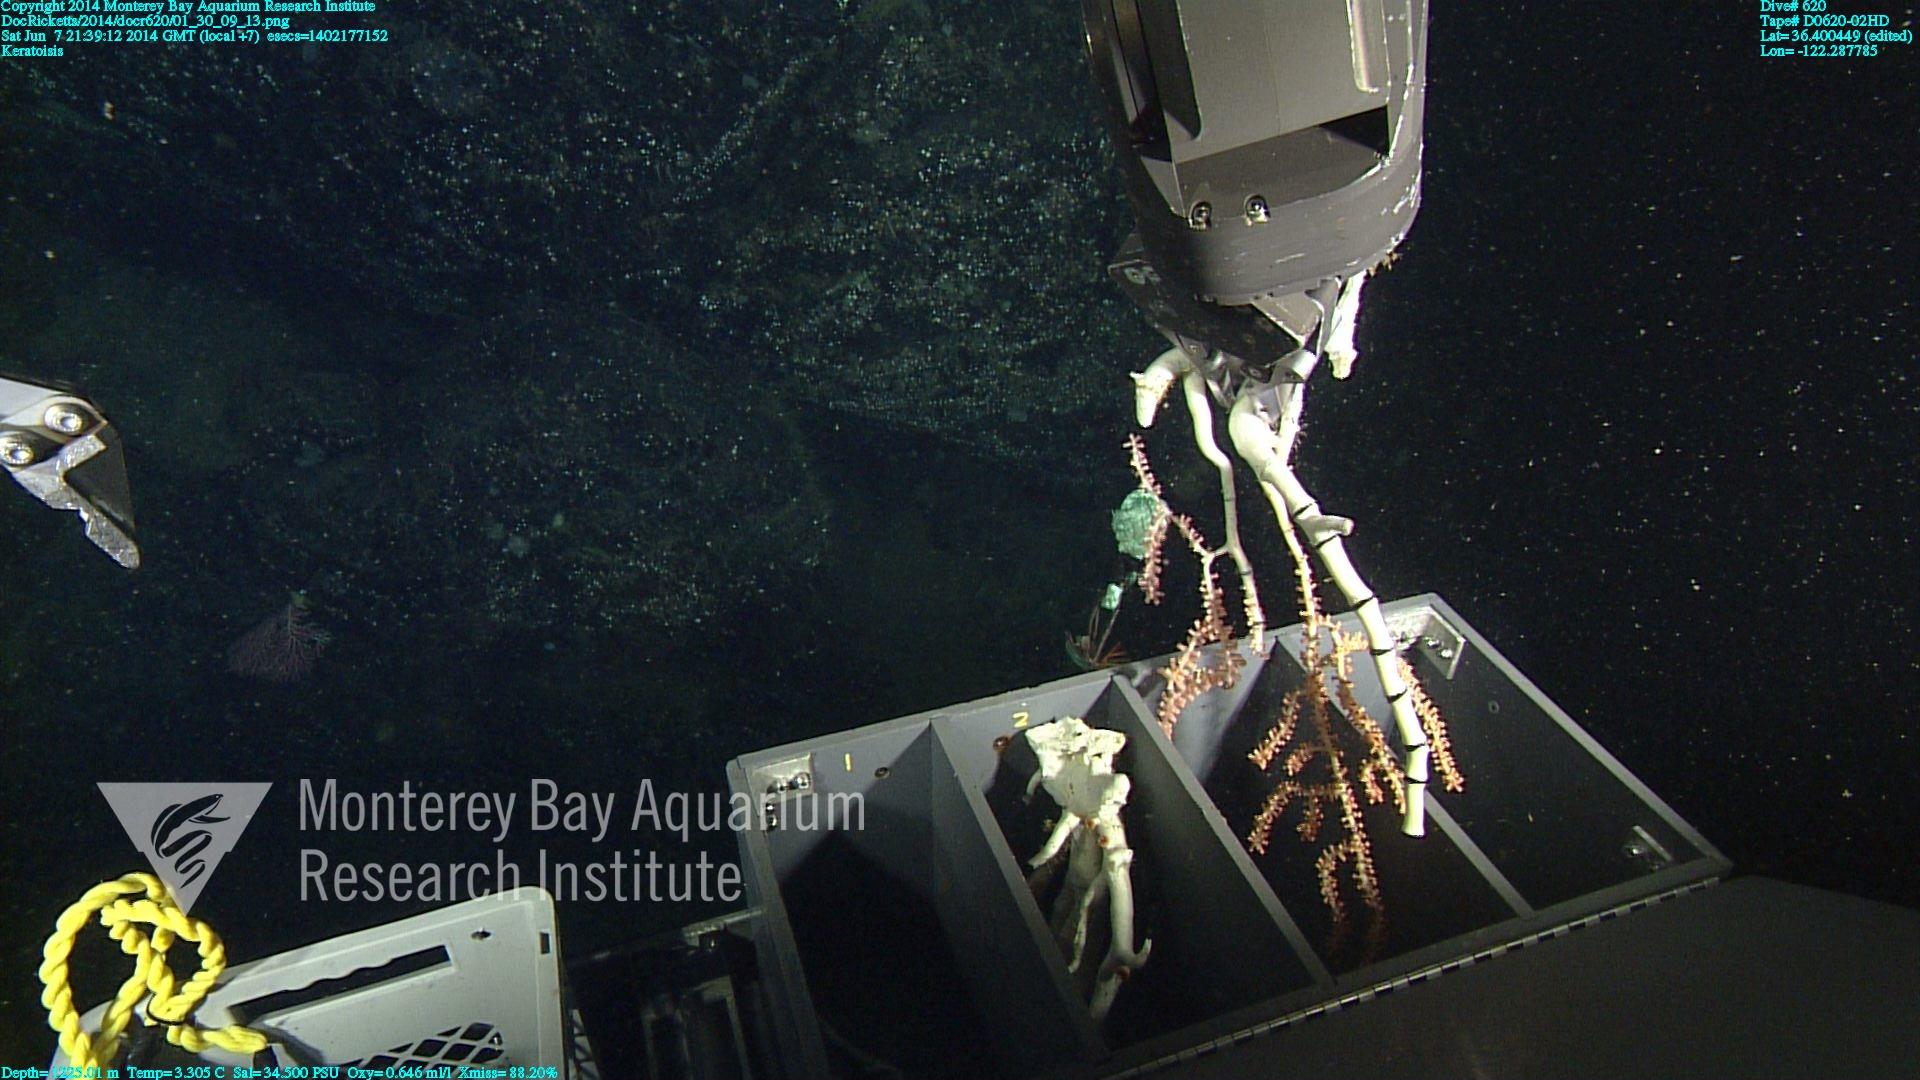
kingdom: Animalia
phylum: Cnidaria
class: Anthozoa
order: Scleralcyonacea
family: Keratoisididae
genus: Keratoisis
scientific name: Keratoisis
